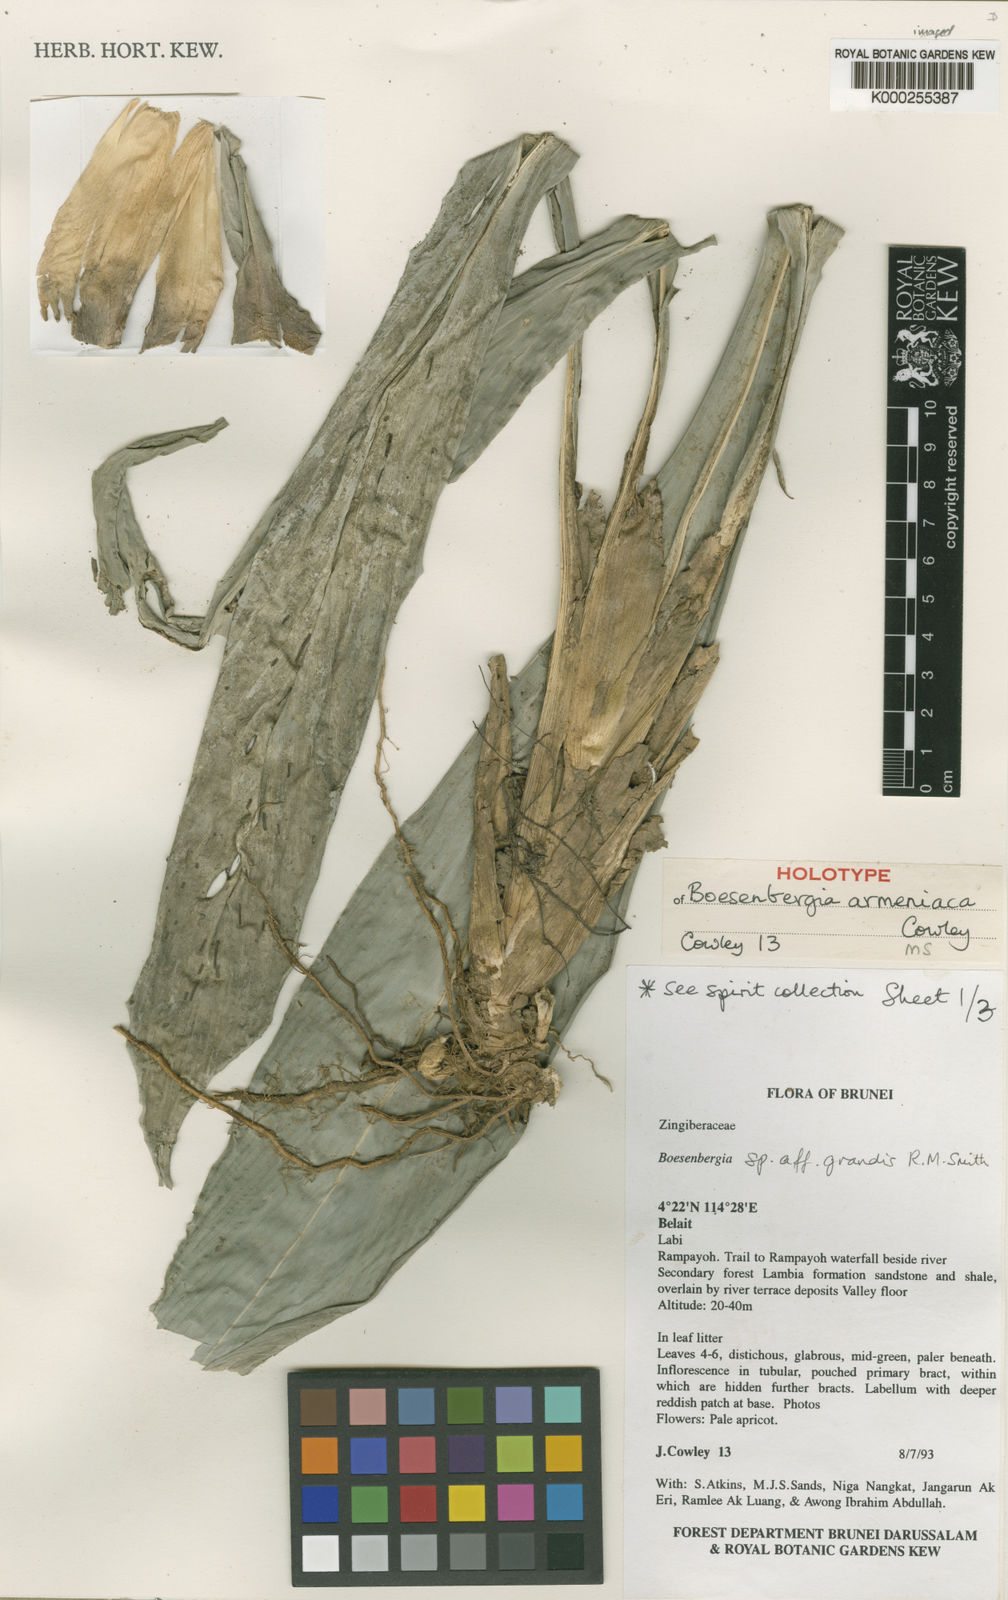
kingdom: Plantae
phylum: Tracheophyta
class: Liliopsida
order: Zingiberales
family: Zingiberaceae
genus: Boesenbergia
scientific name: Boesenbergia armeniaca
